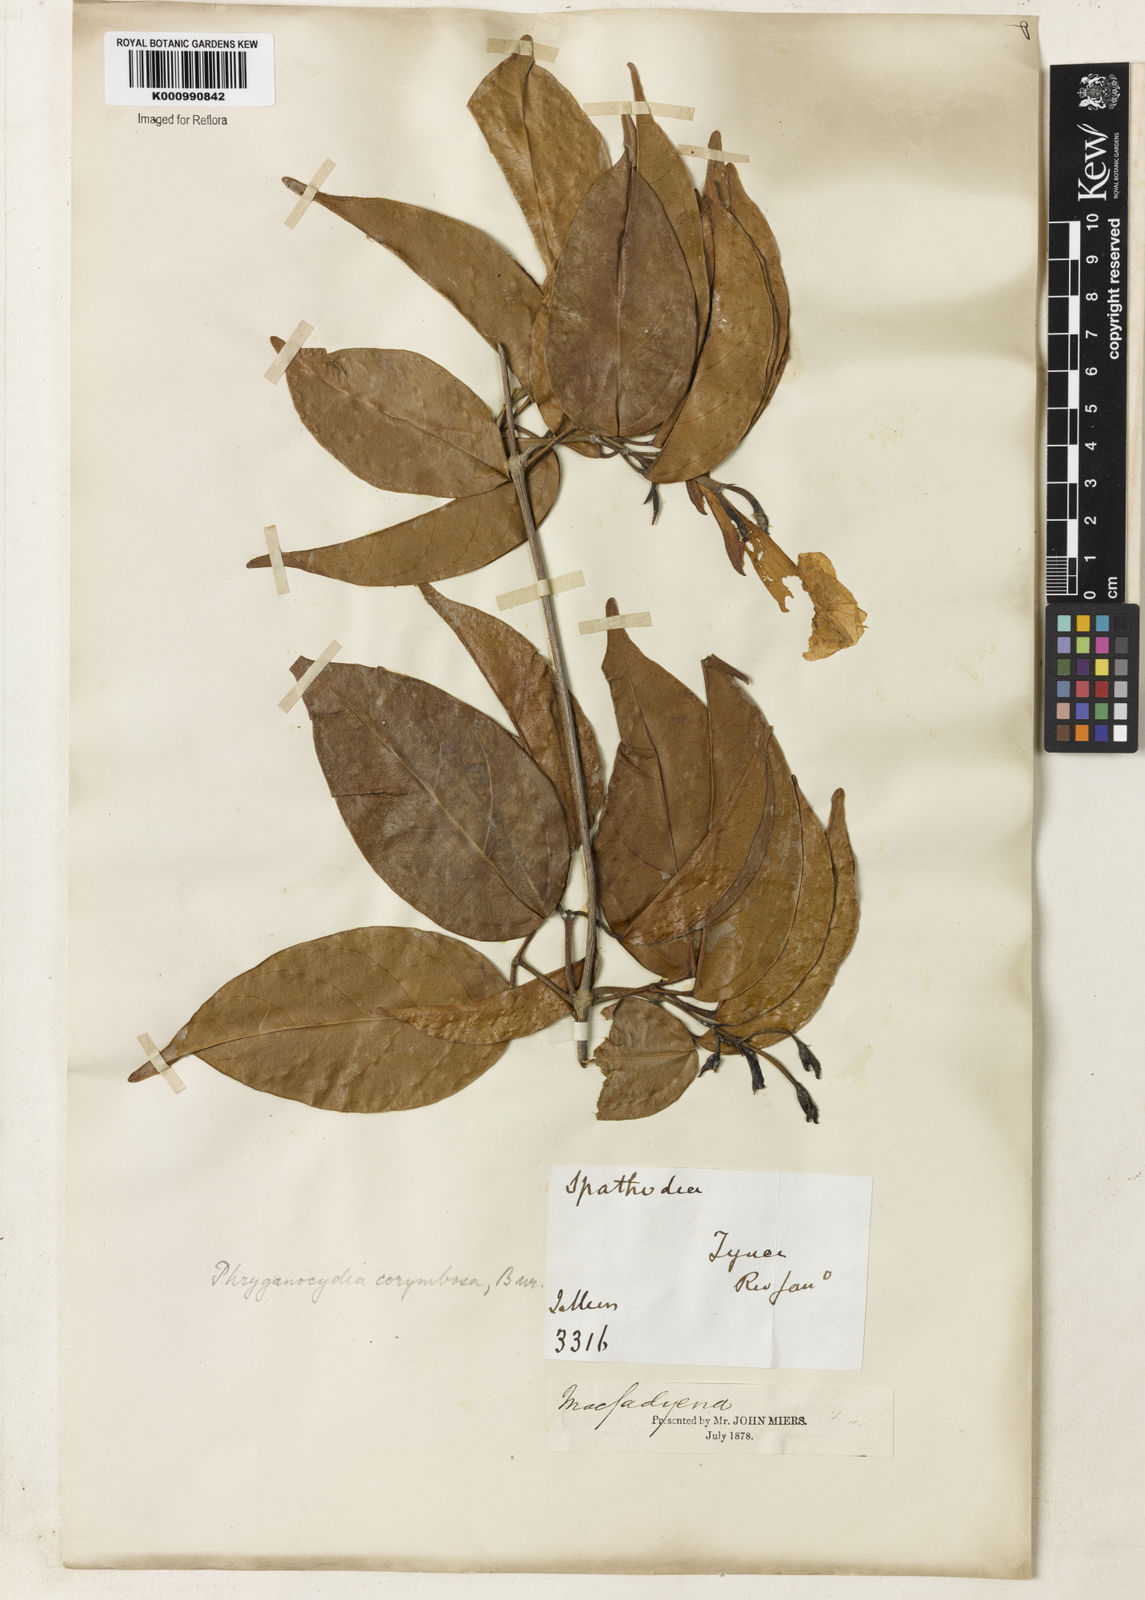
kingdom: Plantae
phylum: Tracheophyta
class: Magnoliopsida
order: Lamiales
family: Bignoniaceae
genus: Bignonia
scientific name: Bignonia corymbosa
